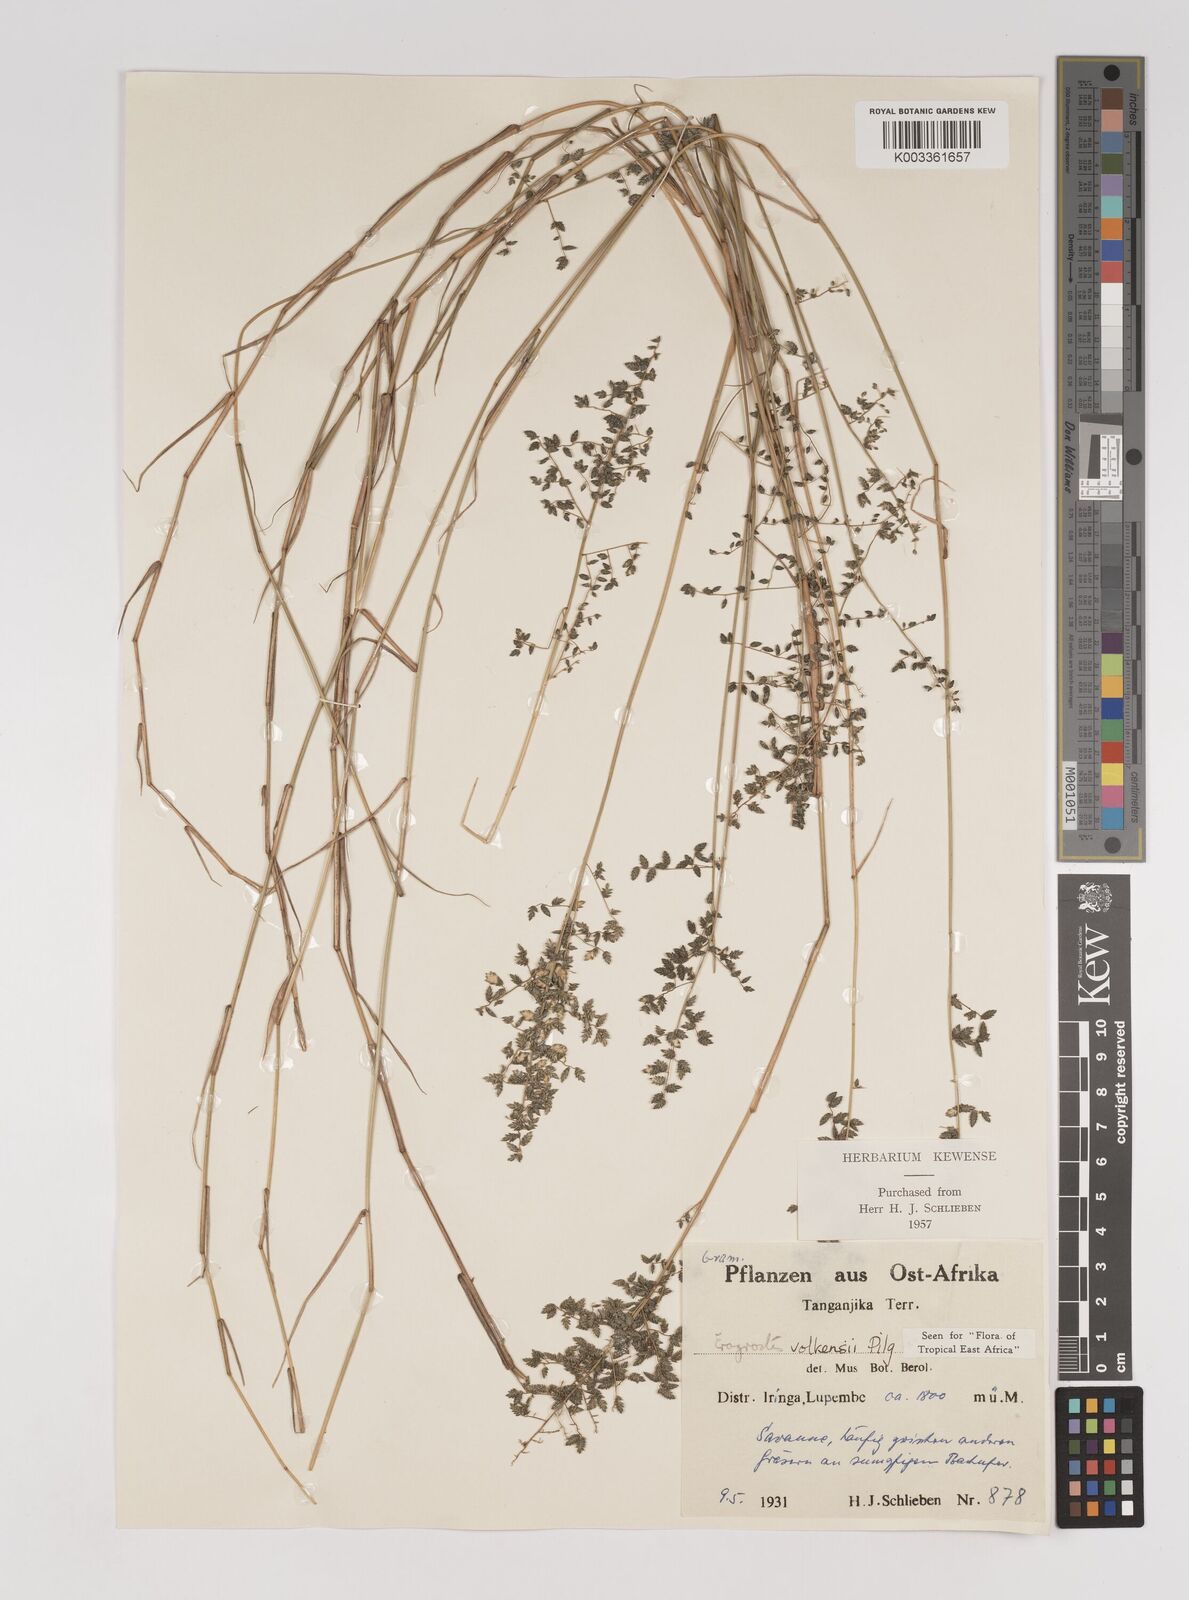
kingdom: Plantae
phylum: Tracheophyta
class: Liliopsida
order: Poales
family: Poaceae
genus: Eragrostis
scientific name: Eragrostis volkensii
